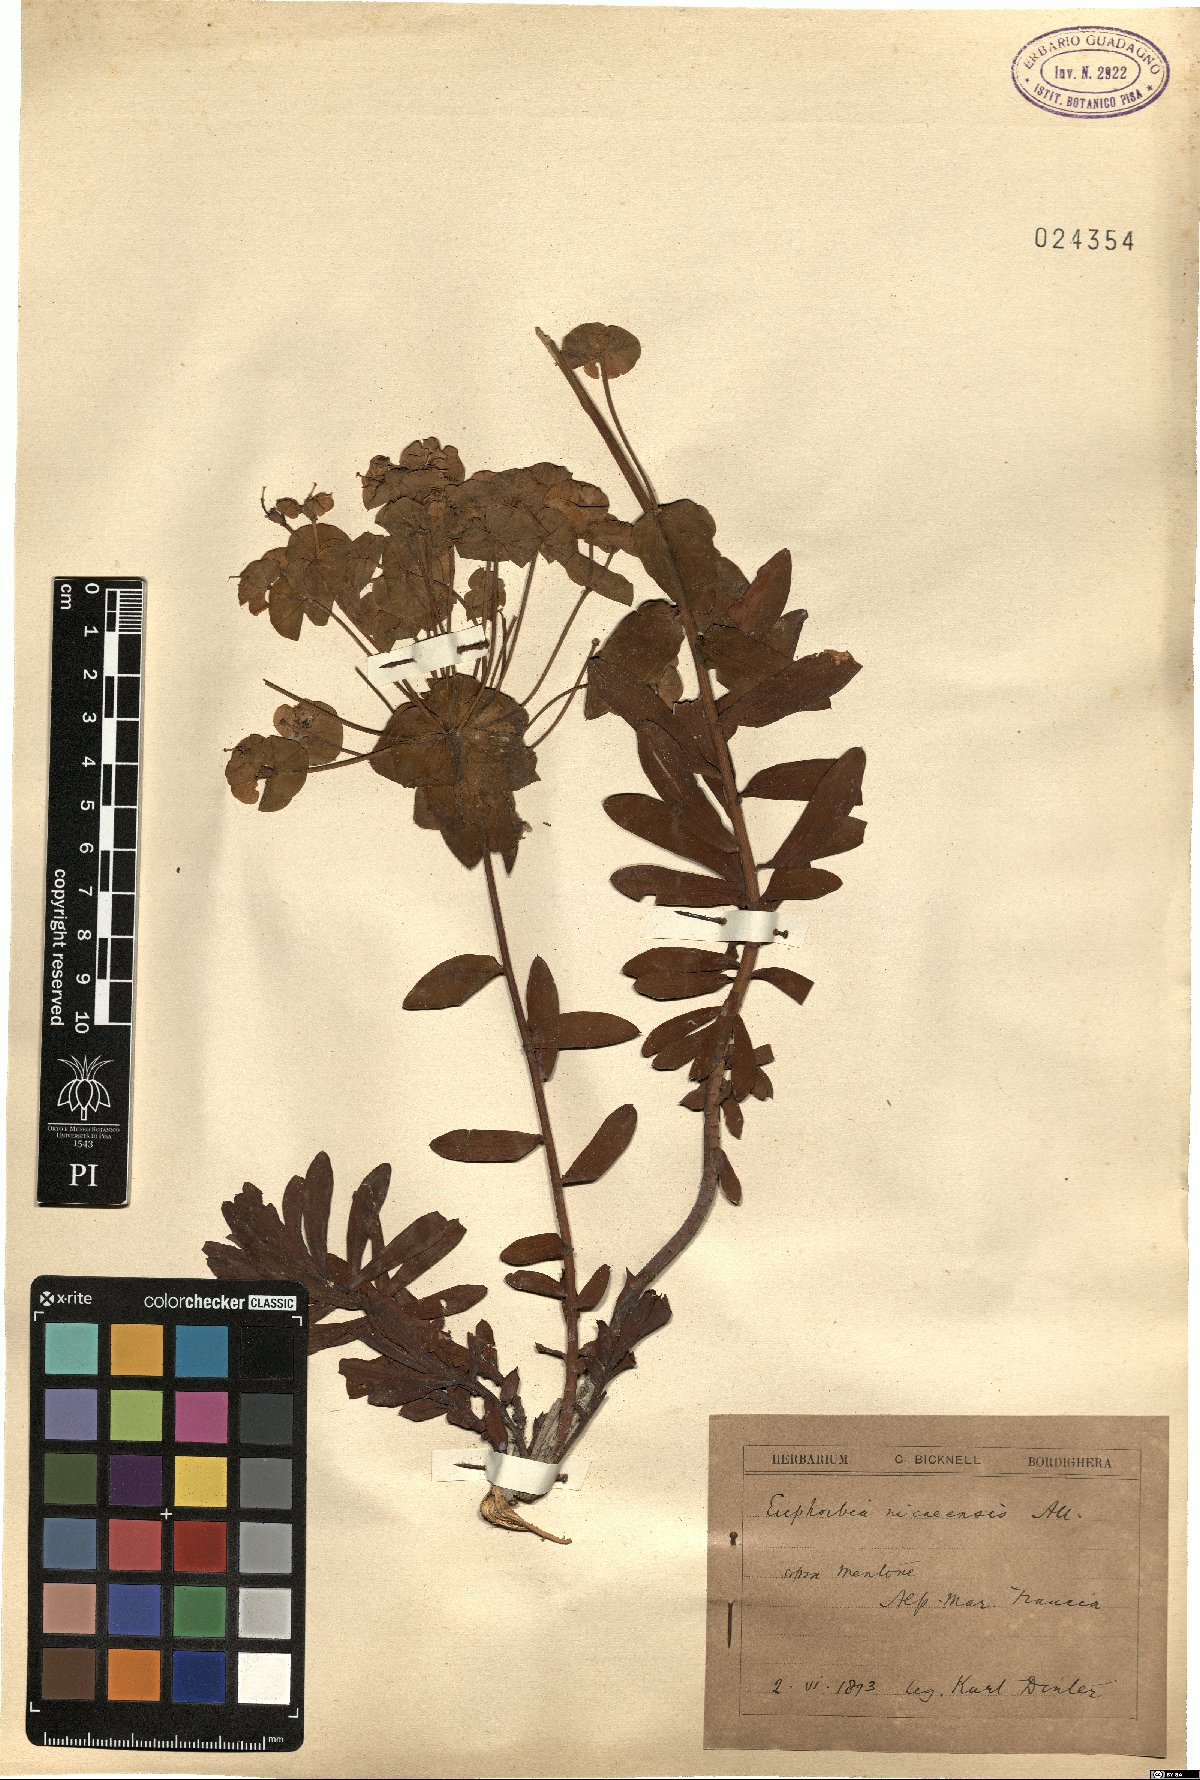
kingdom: Plantae
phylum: Tracheophyta
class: Magnoliopsida
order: Malpighiales
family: Euphorbiaceae
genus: Euphorbia
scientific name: Euphorbia nicaeensis
